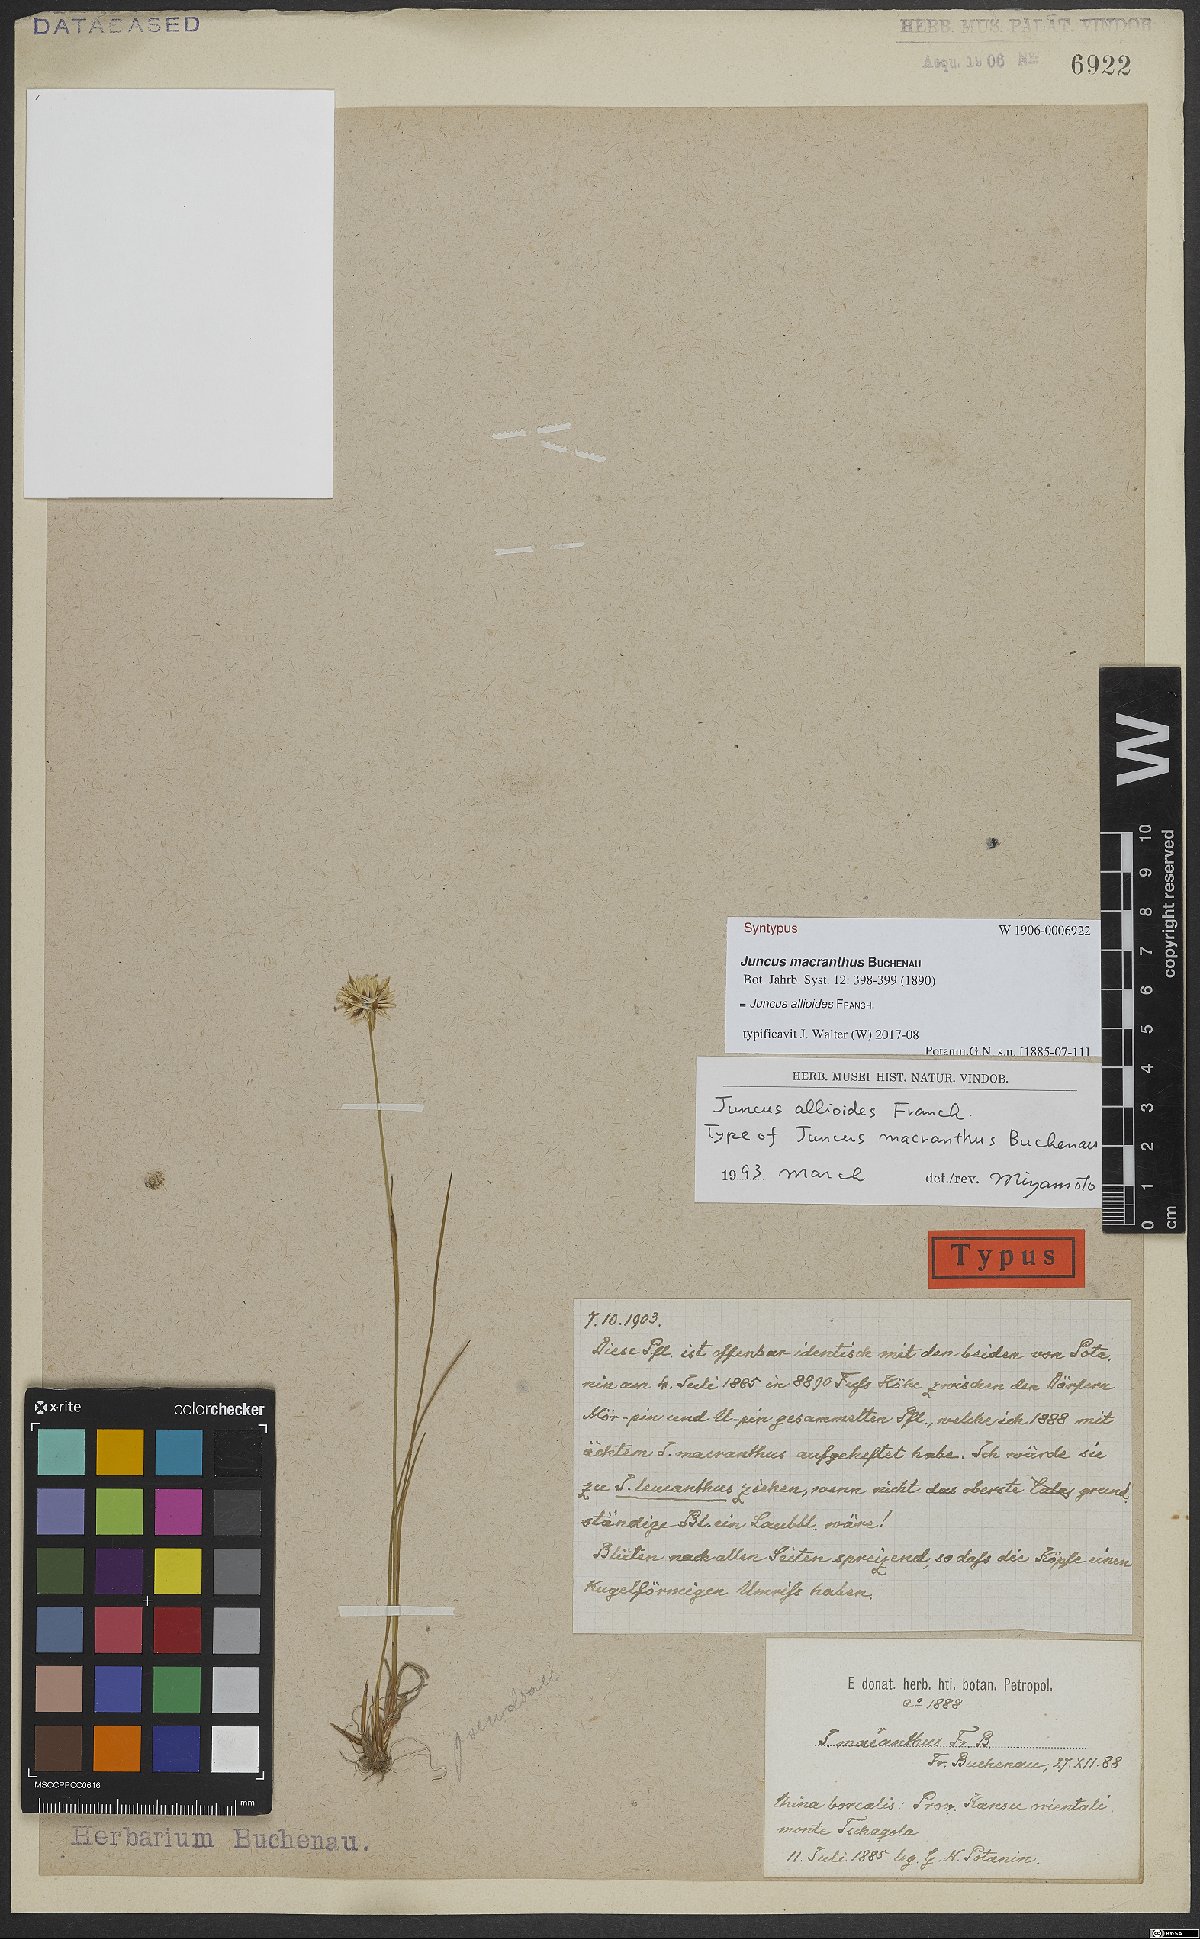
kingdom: Plantae
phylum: Tracheophyta
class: Liliopsida
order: Poales
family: Juncaceae
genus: Juncus
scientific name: Juncus allioides
